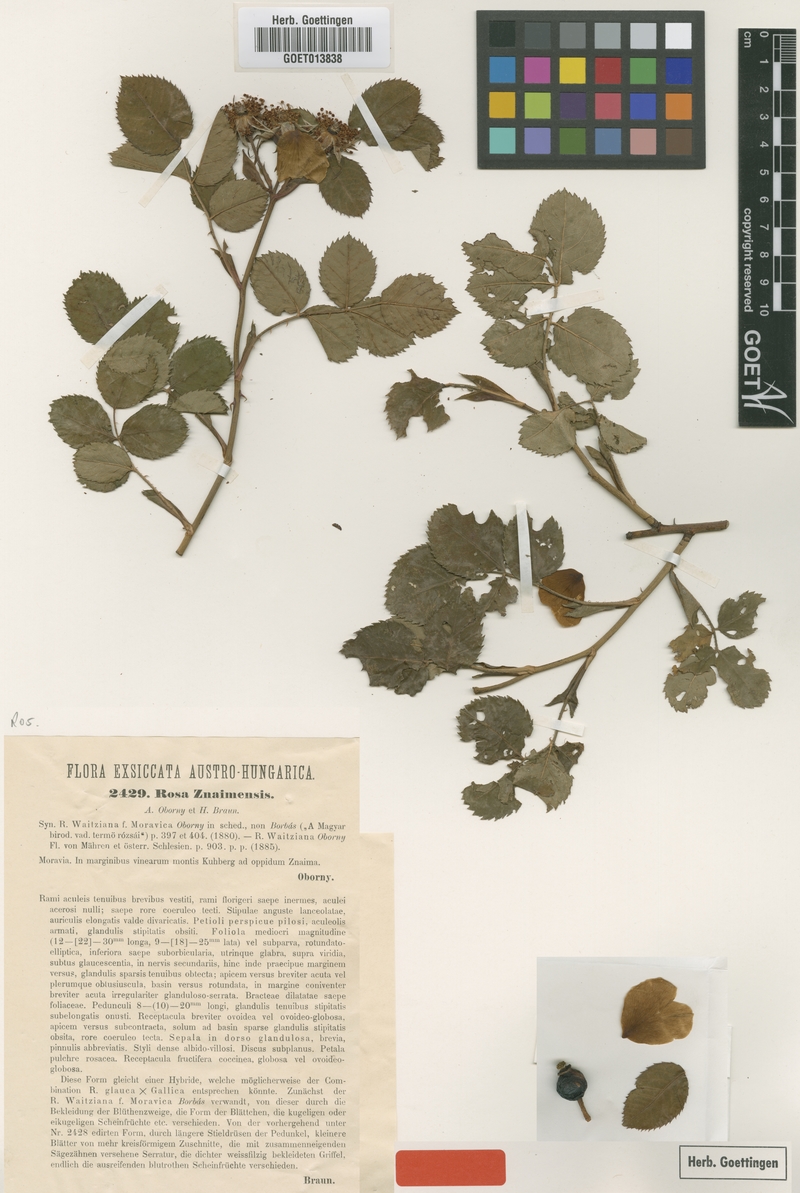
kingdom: Plantae
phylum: Tracheophyta
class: Magnoliopsida
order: Rosales
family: Rosaceae
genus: Rosa
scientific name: Rosa znaimensis
